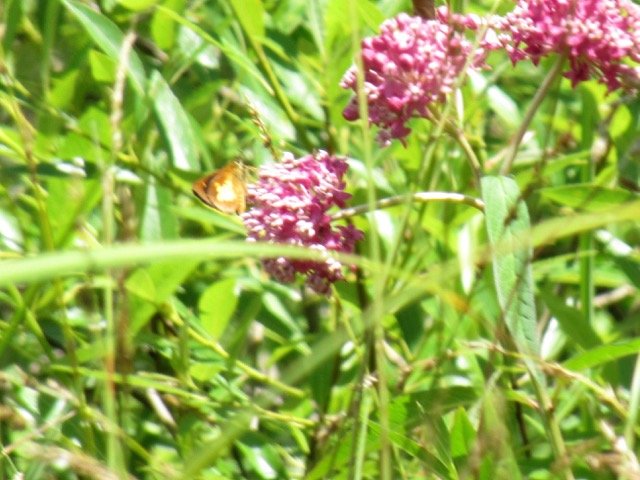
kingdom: Animalia
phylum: Arthropoda
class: Insecta
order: Lepidoptera
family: Hesperiidae
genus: Poanes
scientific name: Poanes massasoit
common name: Mulberry Wing
